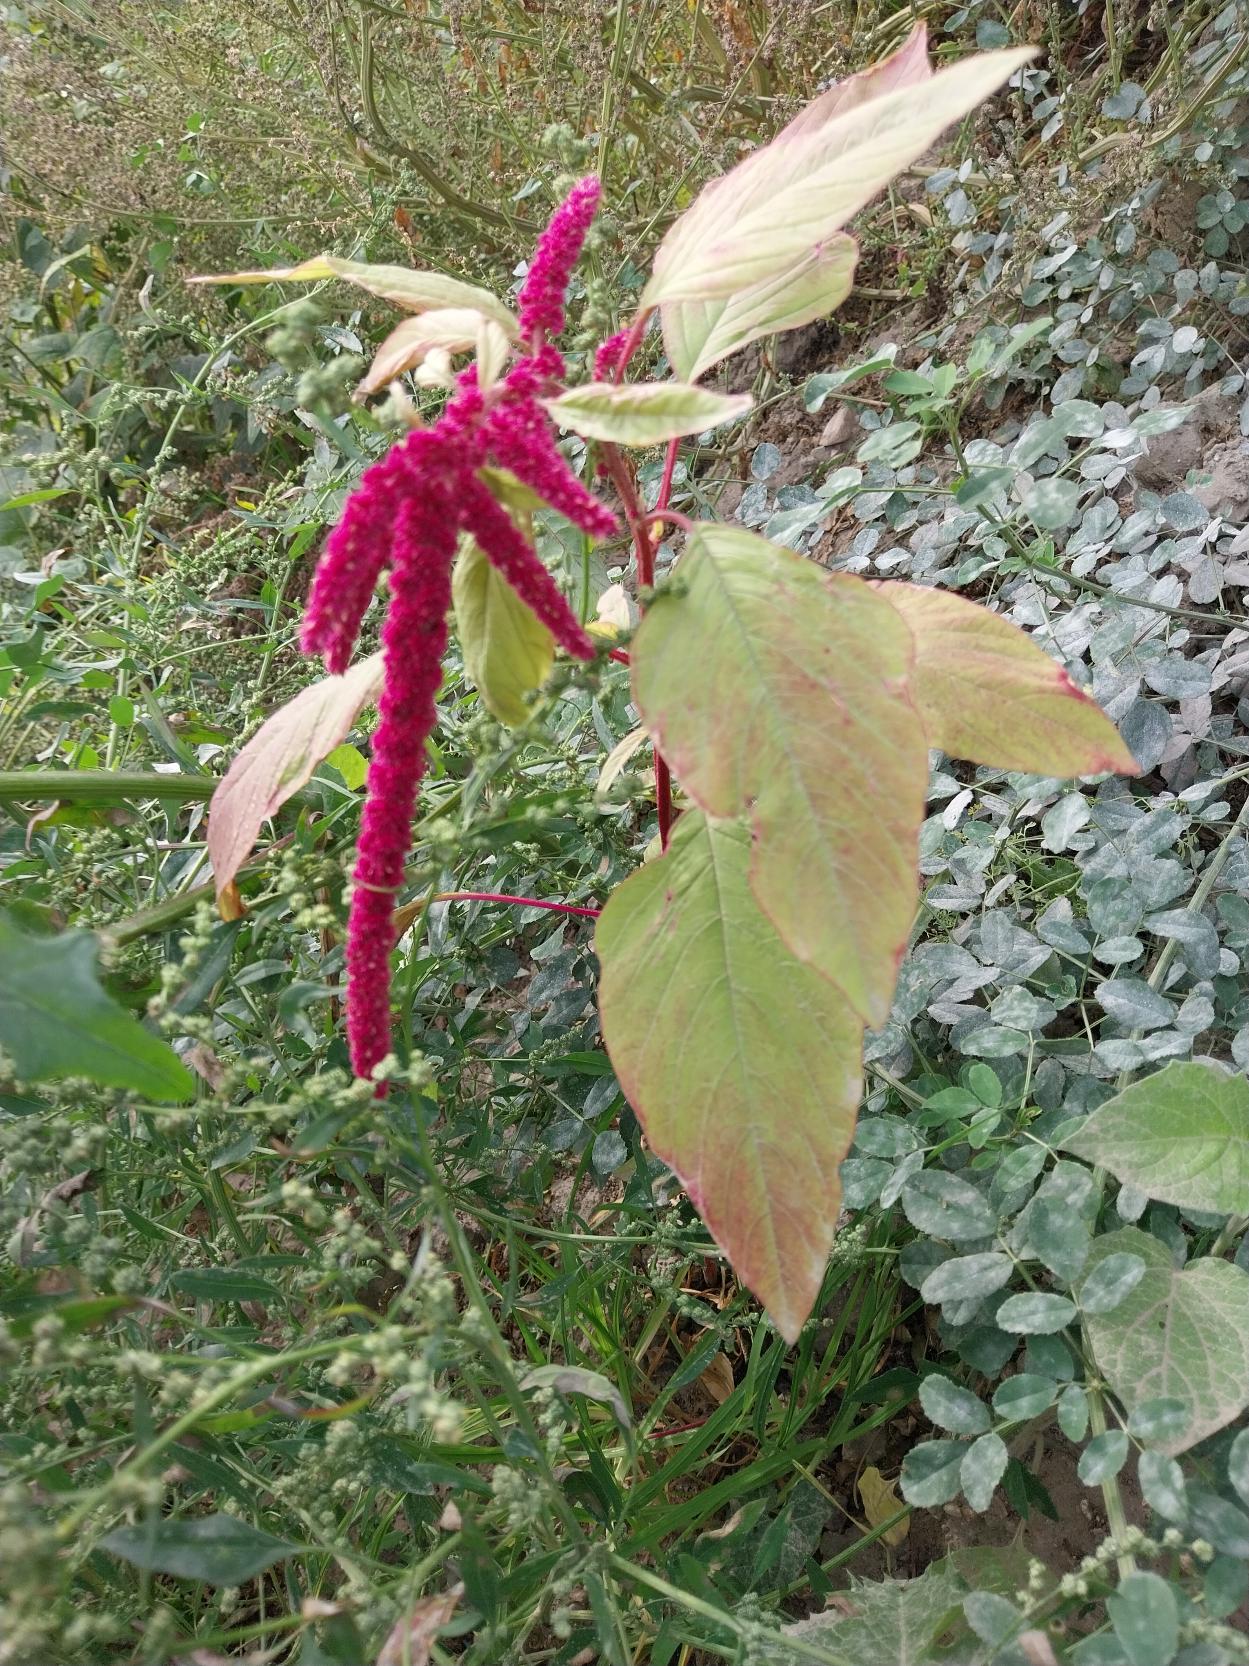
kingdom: Plantae
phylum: Tracheophyta
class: Magnoliopsida
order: Caryophyllales
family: Amaranthaceae
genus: Amaranthus
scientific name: Amaranthus caudatus
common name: Rævehale-amarant
